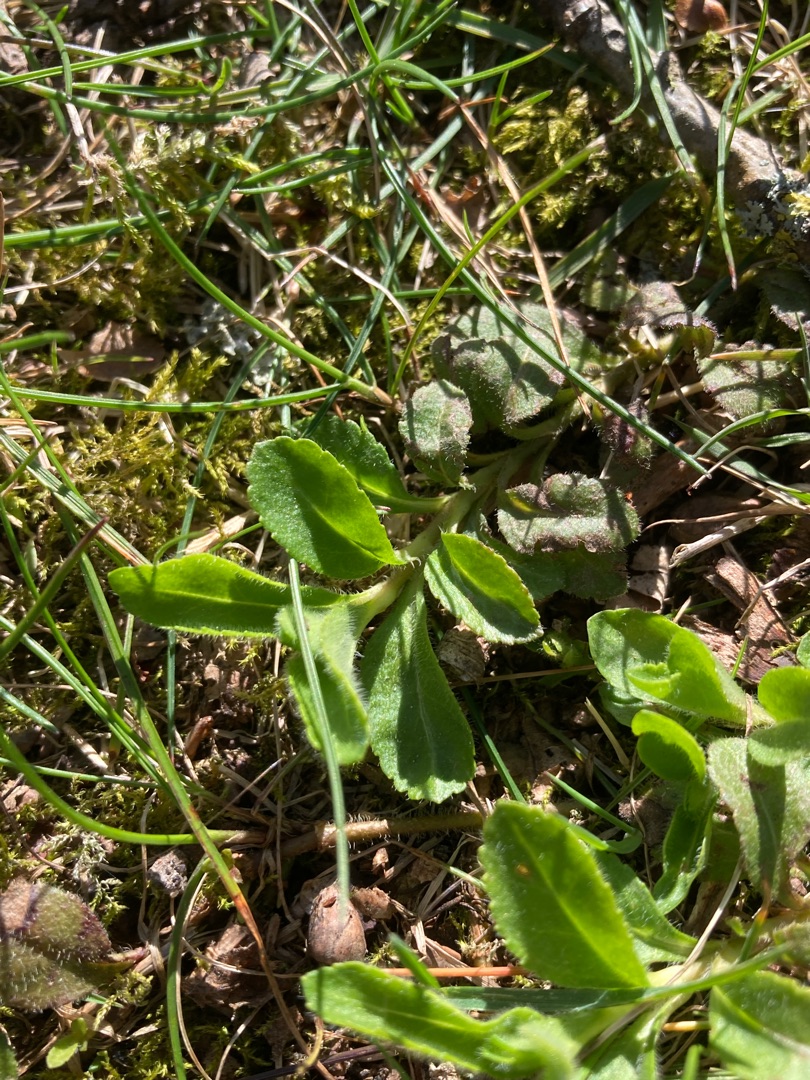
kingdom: Plantae
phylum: Tracheophyta
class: Magnoliopsida
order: Lamiales
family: Plantaginaceae
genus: Veronica
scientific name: Veronica officinalis
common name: Læge-ærenpris
